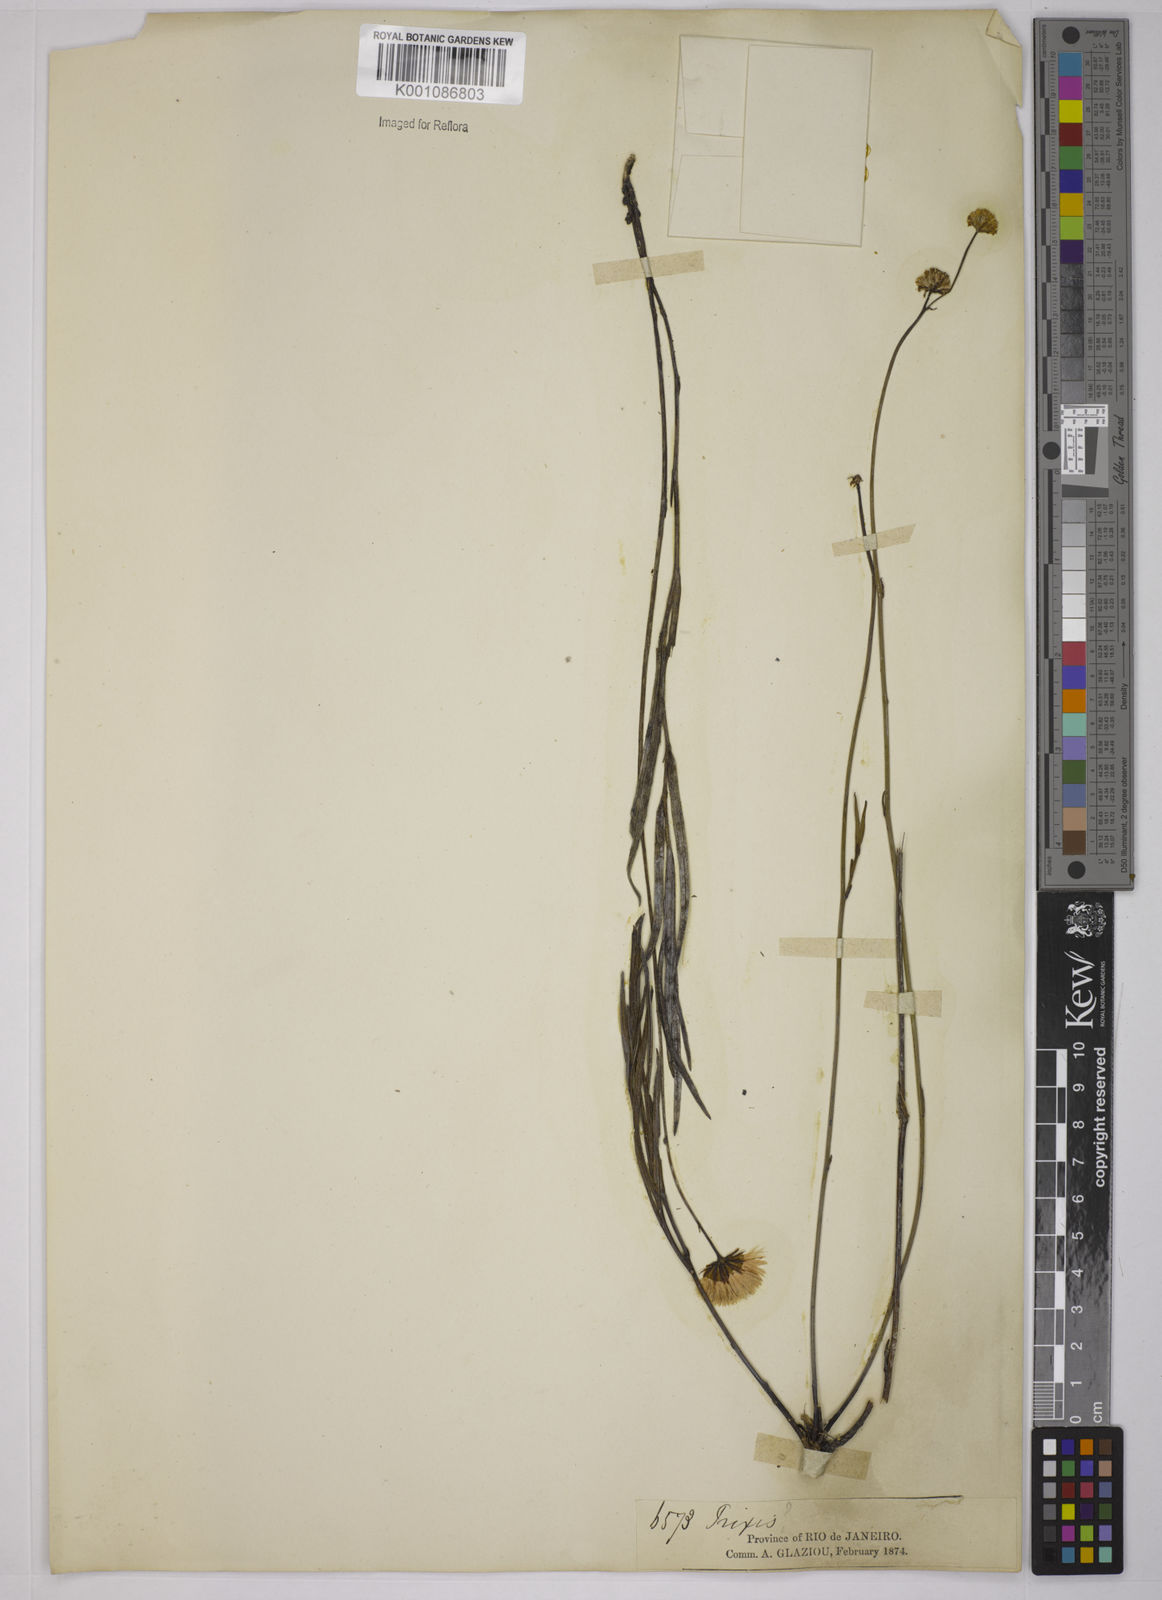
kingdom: Plantae
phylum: Tracheophyta
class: Magnoliopsida
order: Asterales
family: Asteraceae
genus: Trixis
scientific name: Trixis
